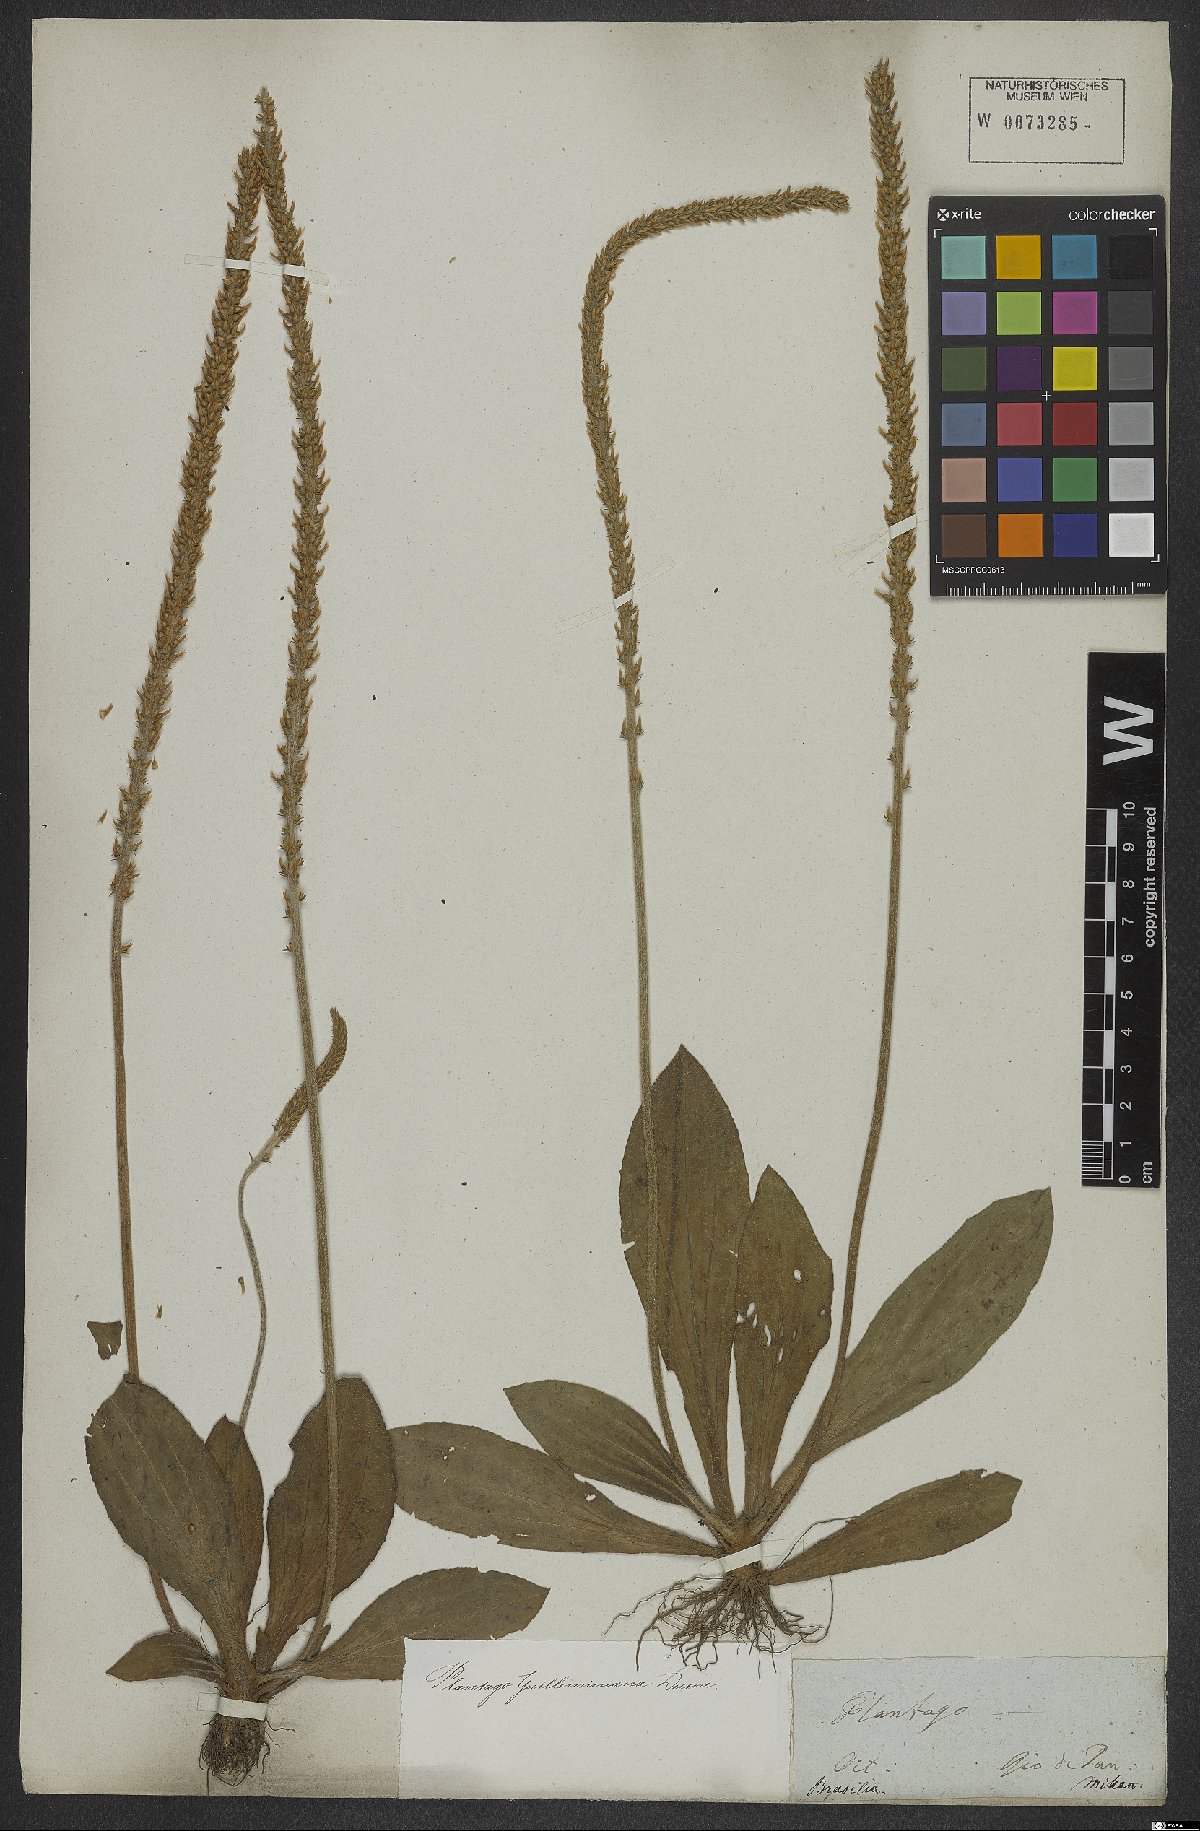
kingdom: Plantae
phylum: Tracheophyta
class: Magnoliopsida
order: Lamiales
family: Plantaginaceae
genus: Plantago
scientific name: Plantago guilleminiana
